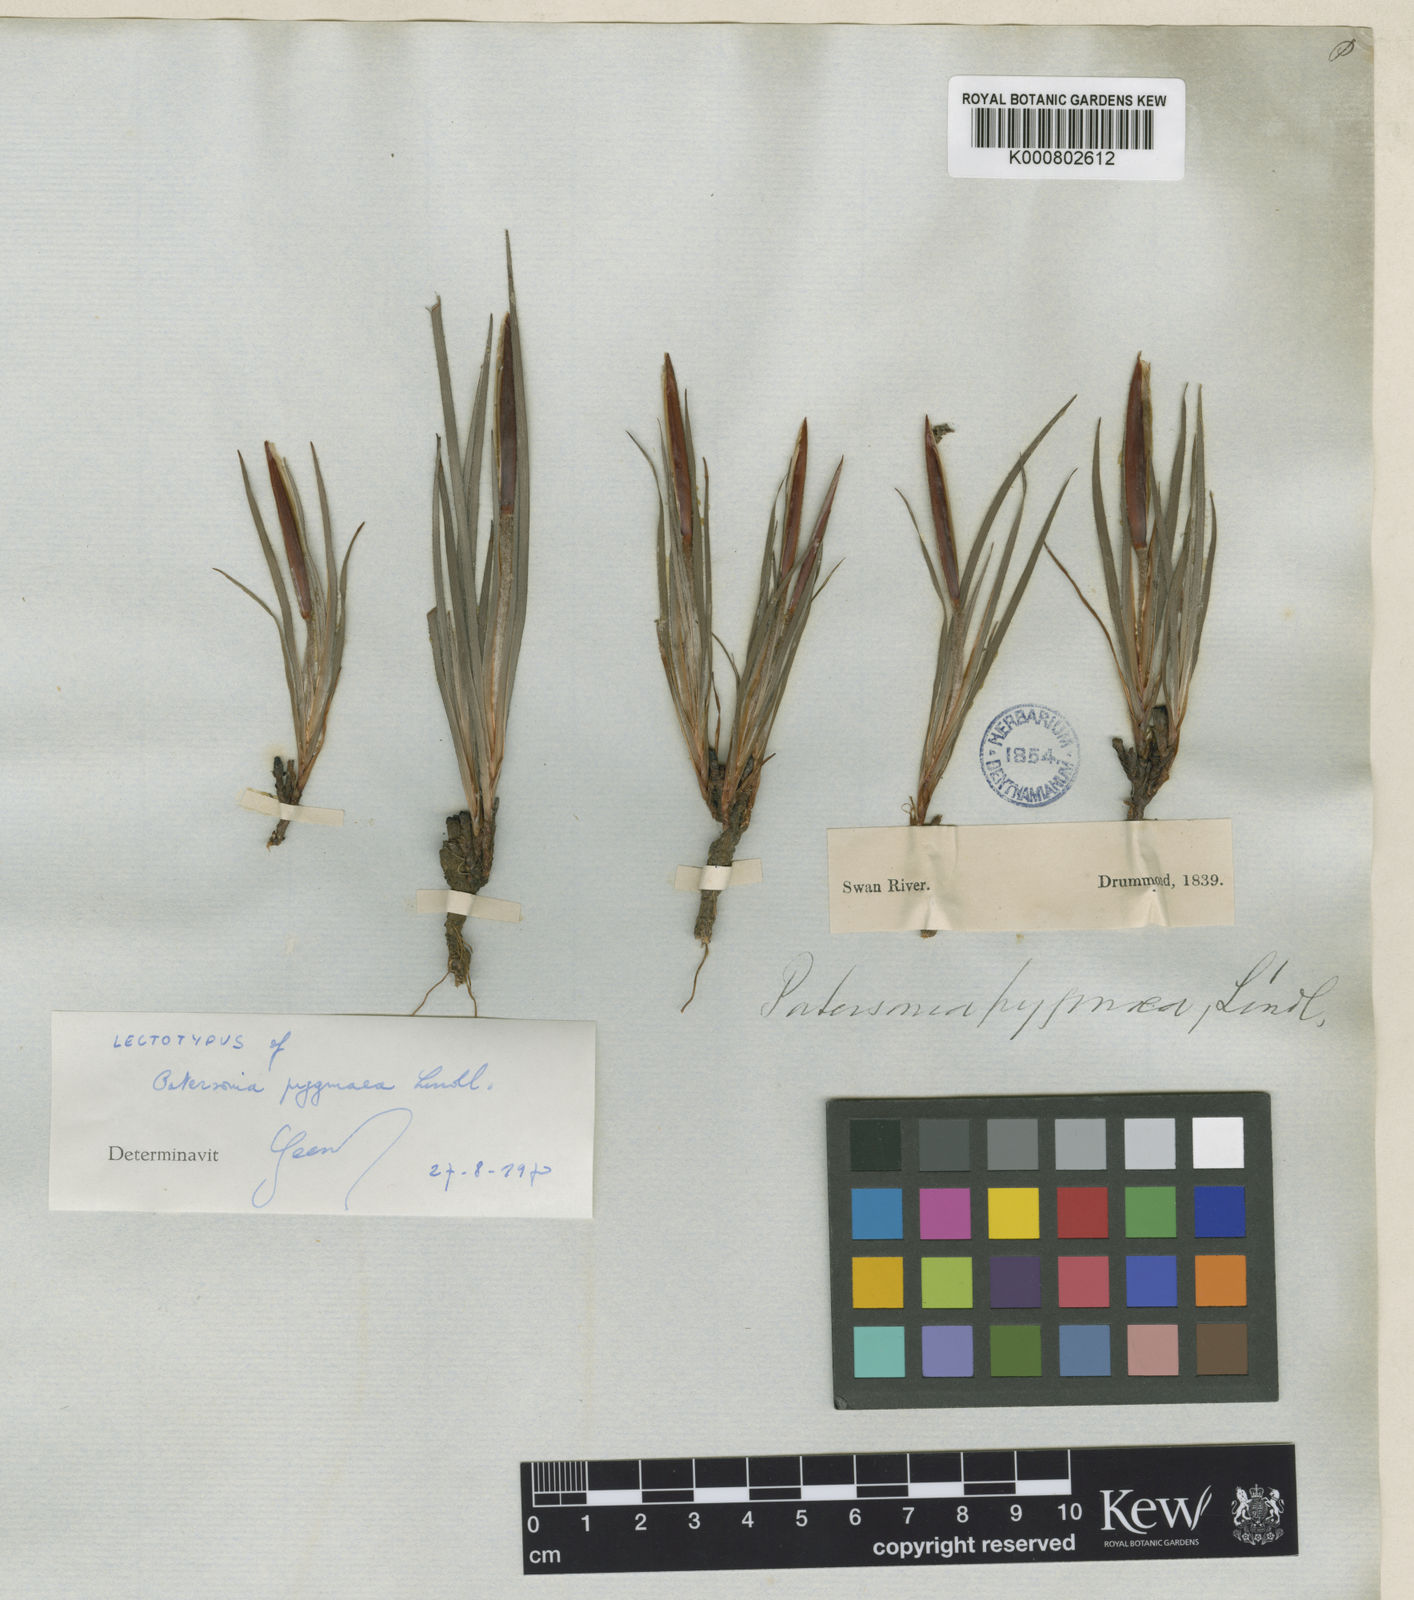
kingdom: Plantae
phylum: Tracheophyta
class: Liliopsida
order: Asparagales
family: Iridaceae
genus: Patersonia
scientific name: Patersonia pygmaea
